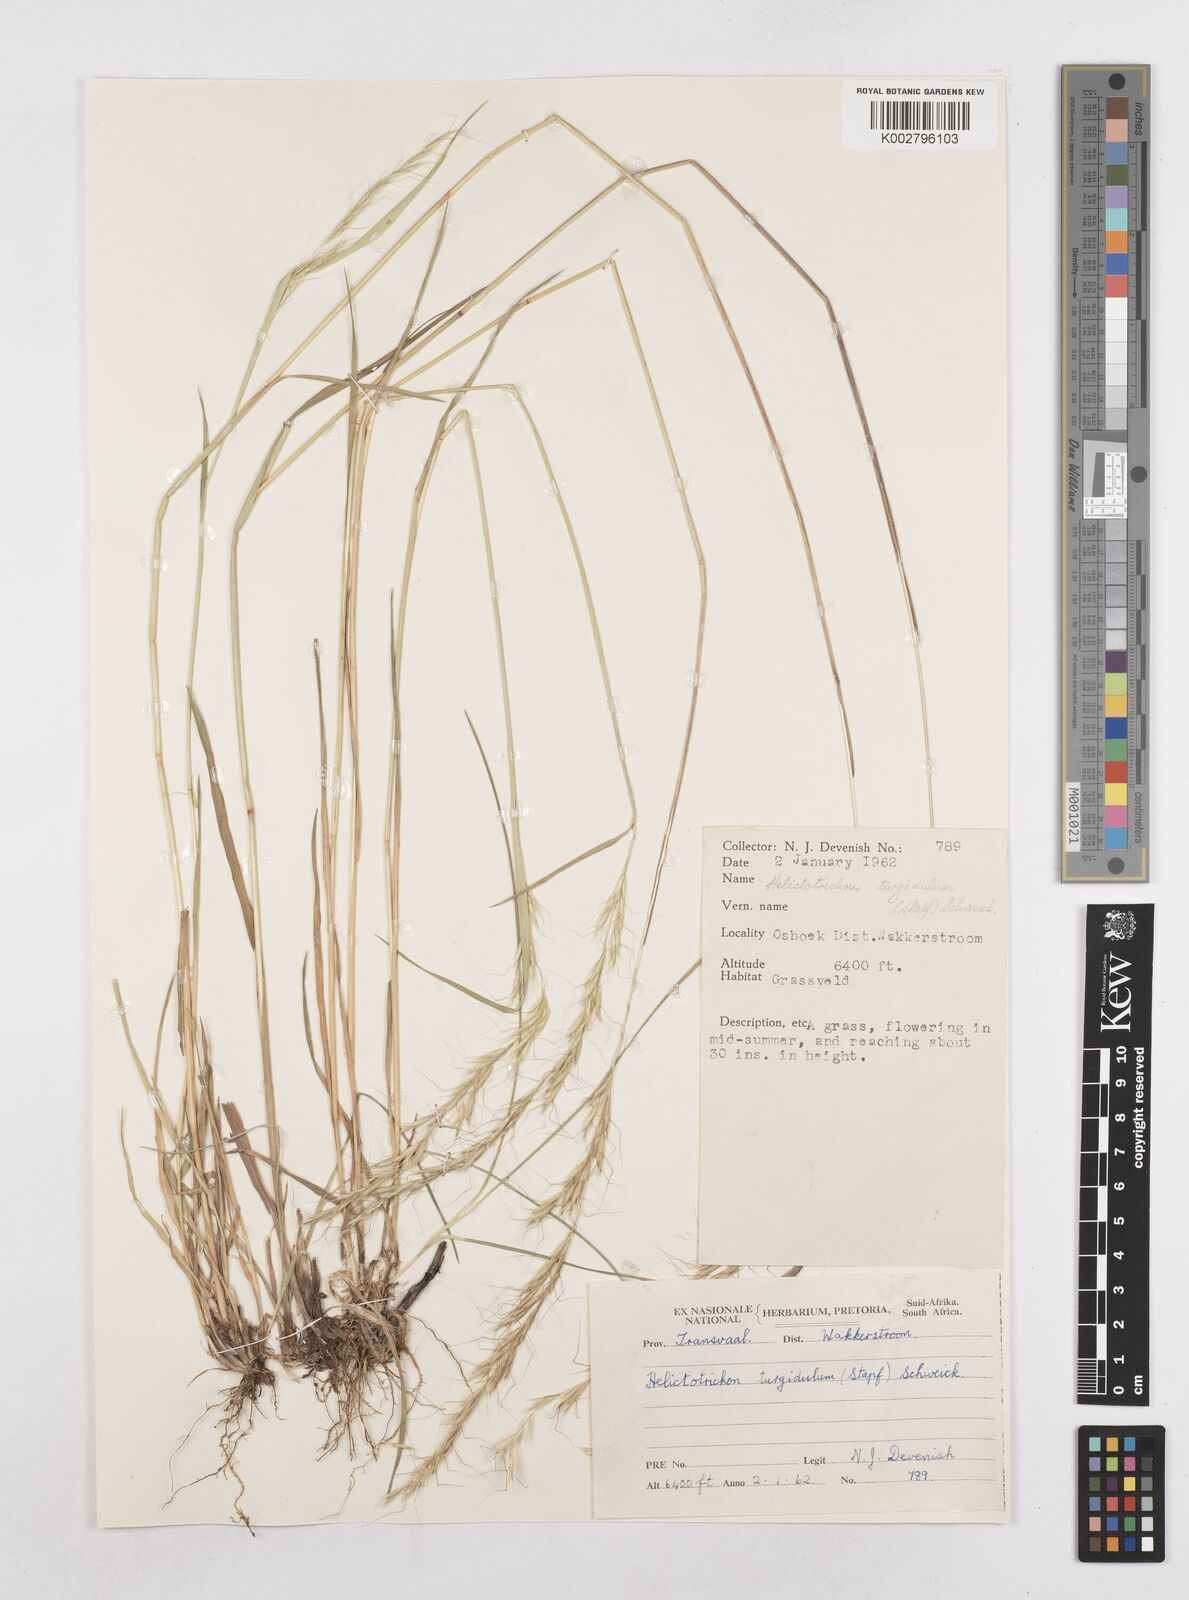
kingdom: Plantae
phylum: Tracheophyta
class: Liliopsida
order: Poales
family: Poaceae
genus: Trisetopsis
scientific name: Trisetopsis imberbis
